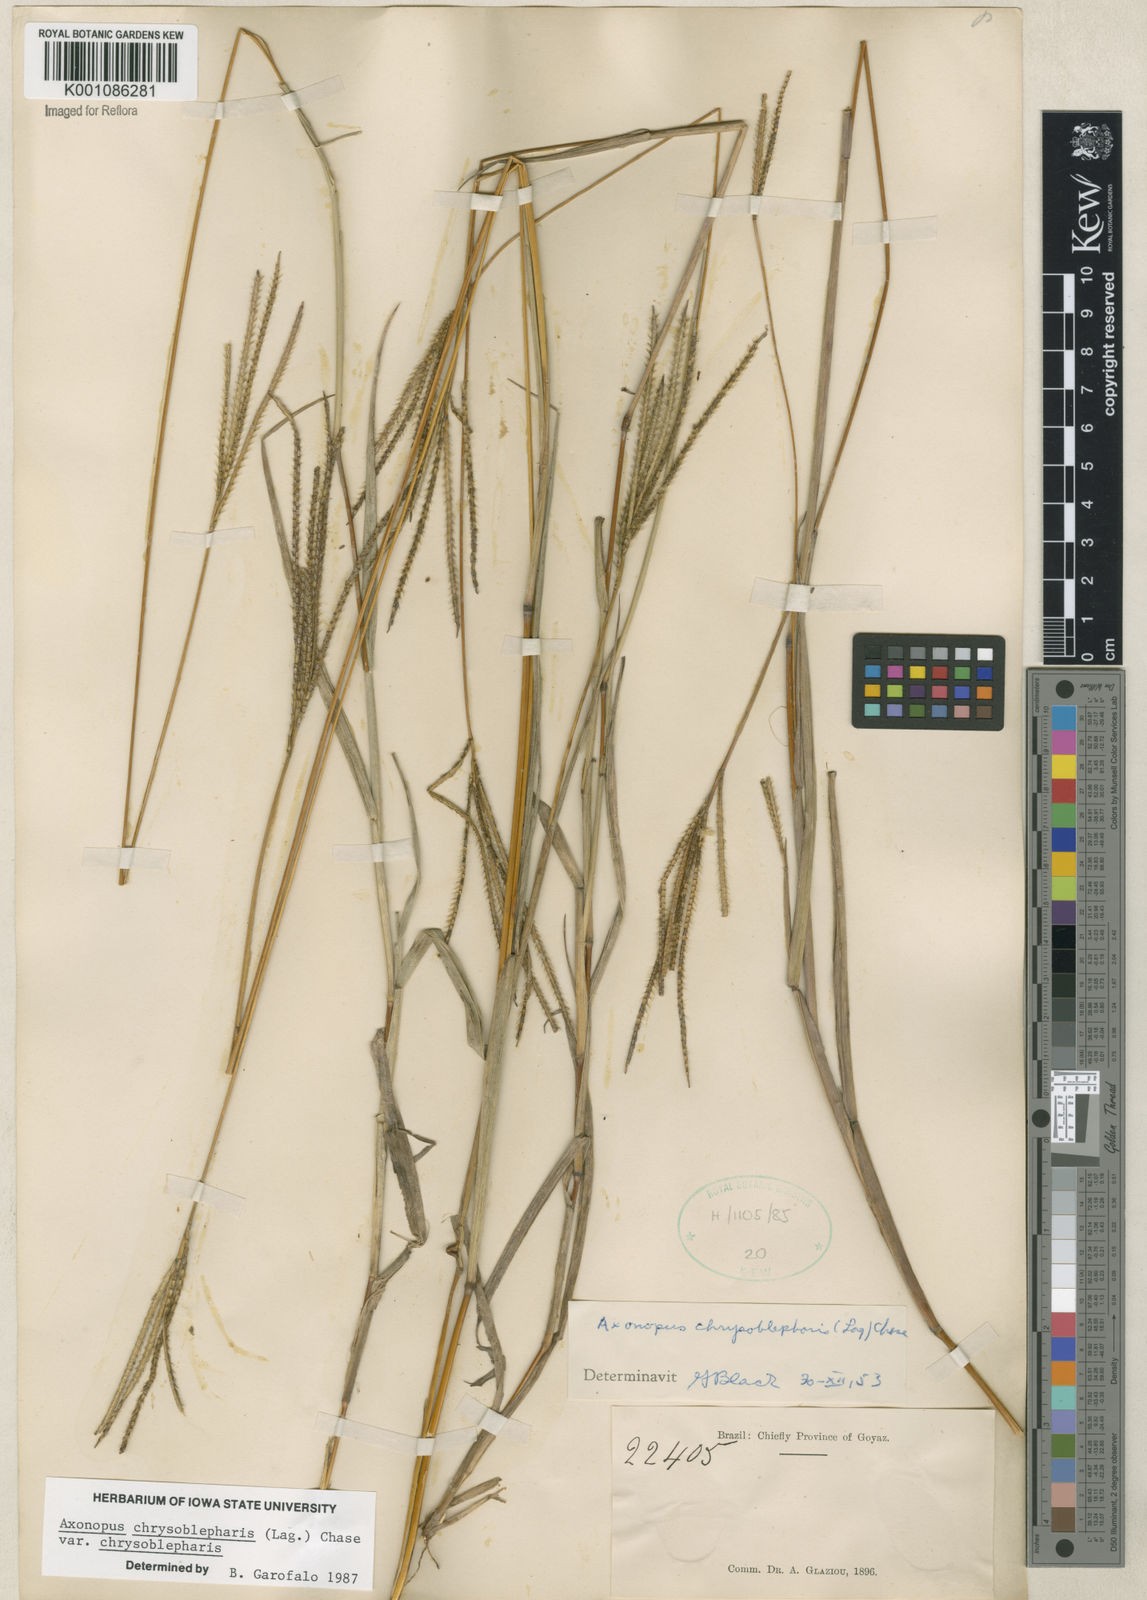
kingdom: Plantae
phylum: Tracheophyta
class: Liliopsida
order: Poales
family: Poaceae
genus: Axonopus
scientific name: Axonopus chrysoblepharis
